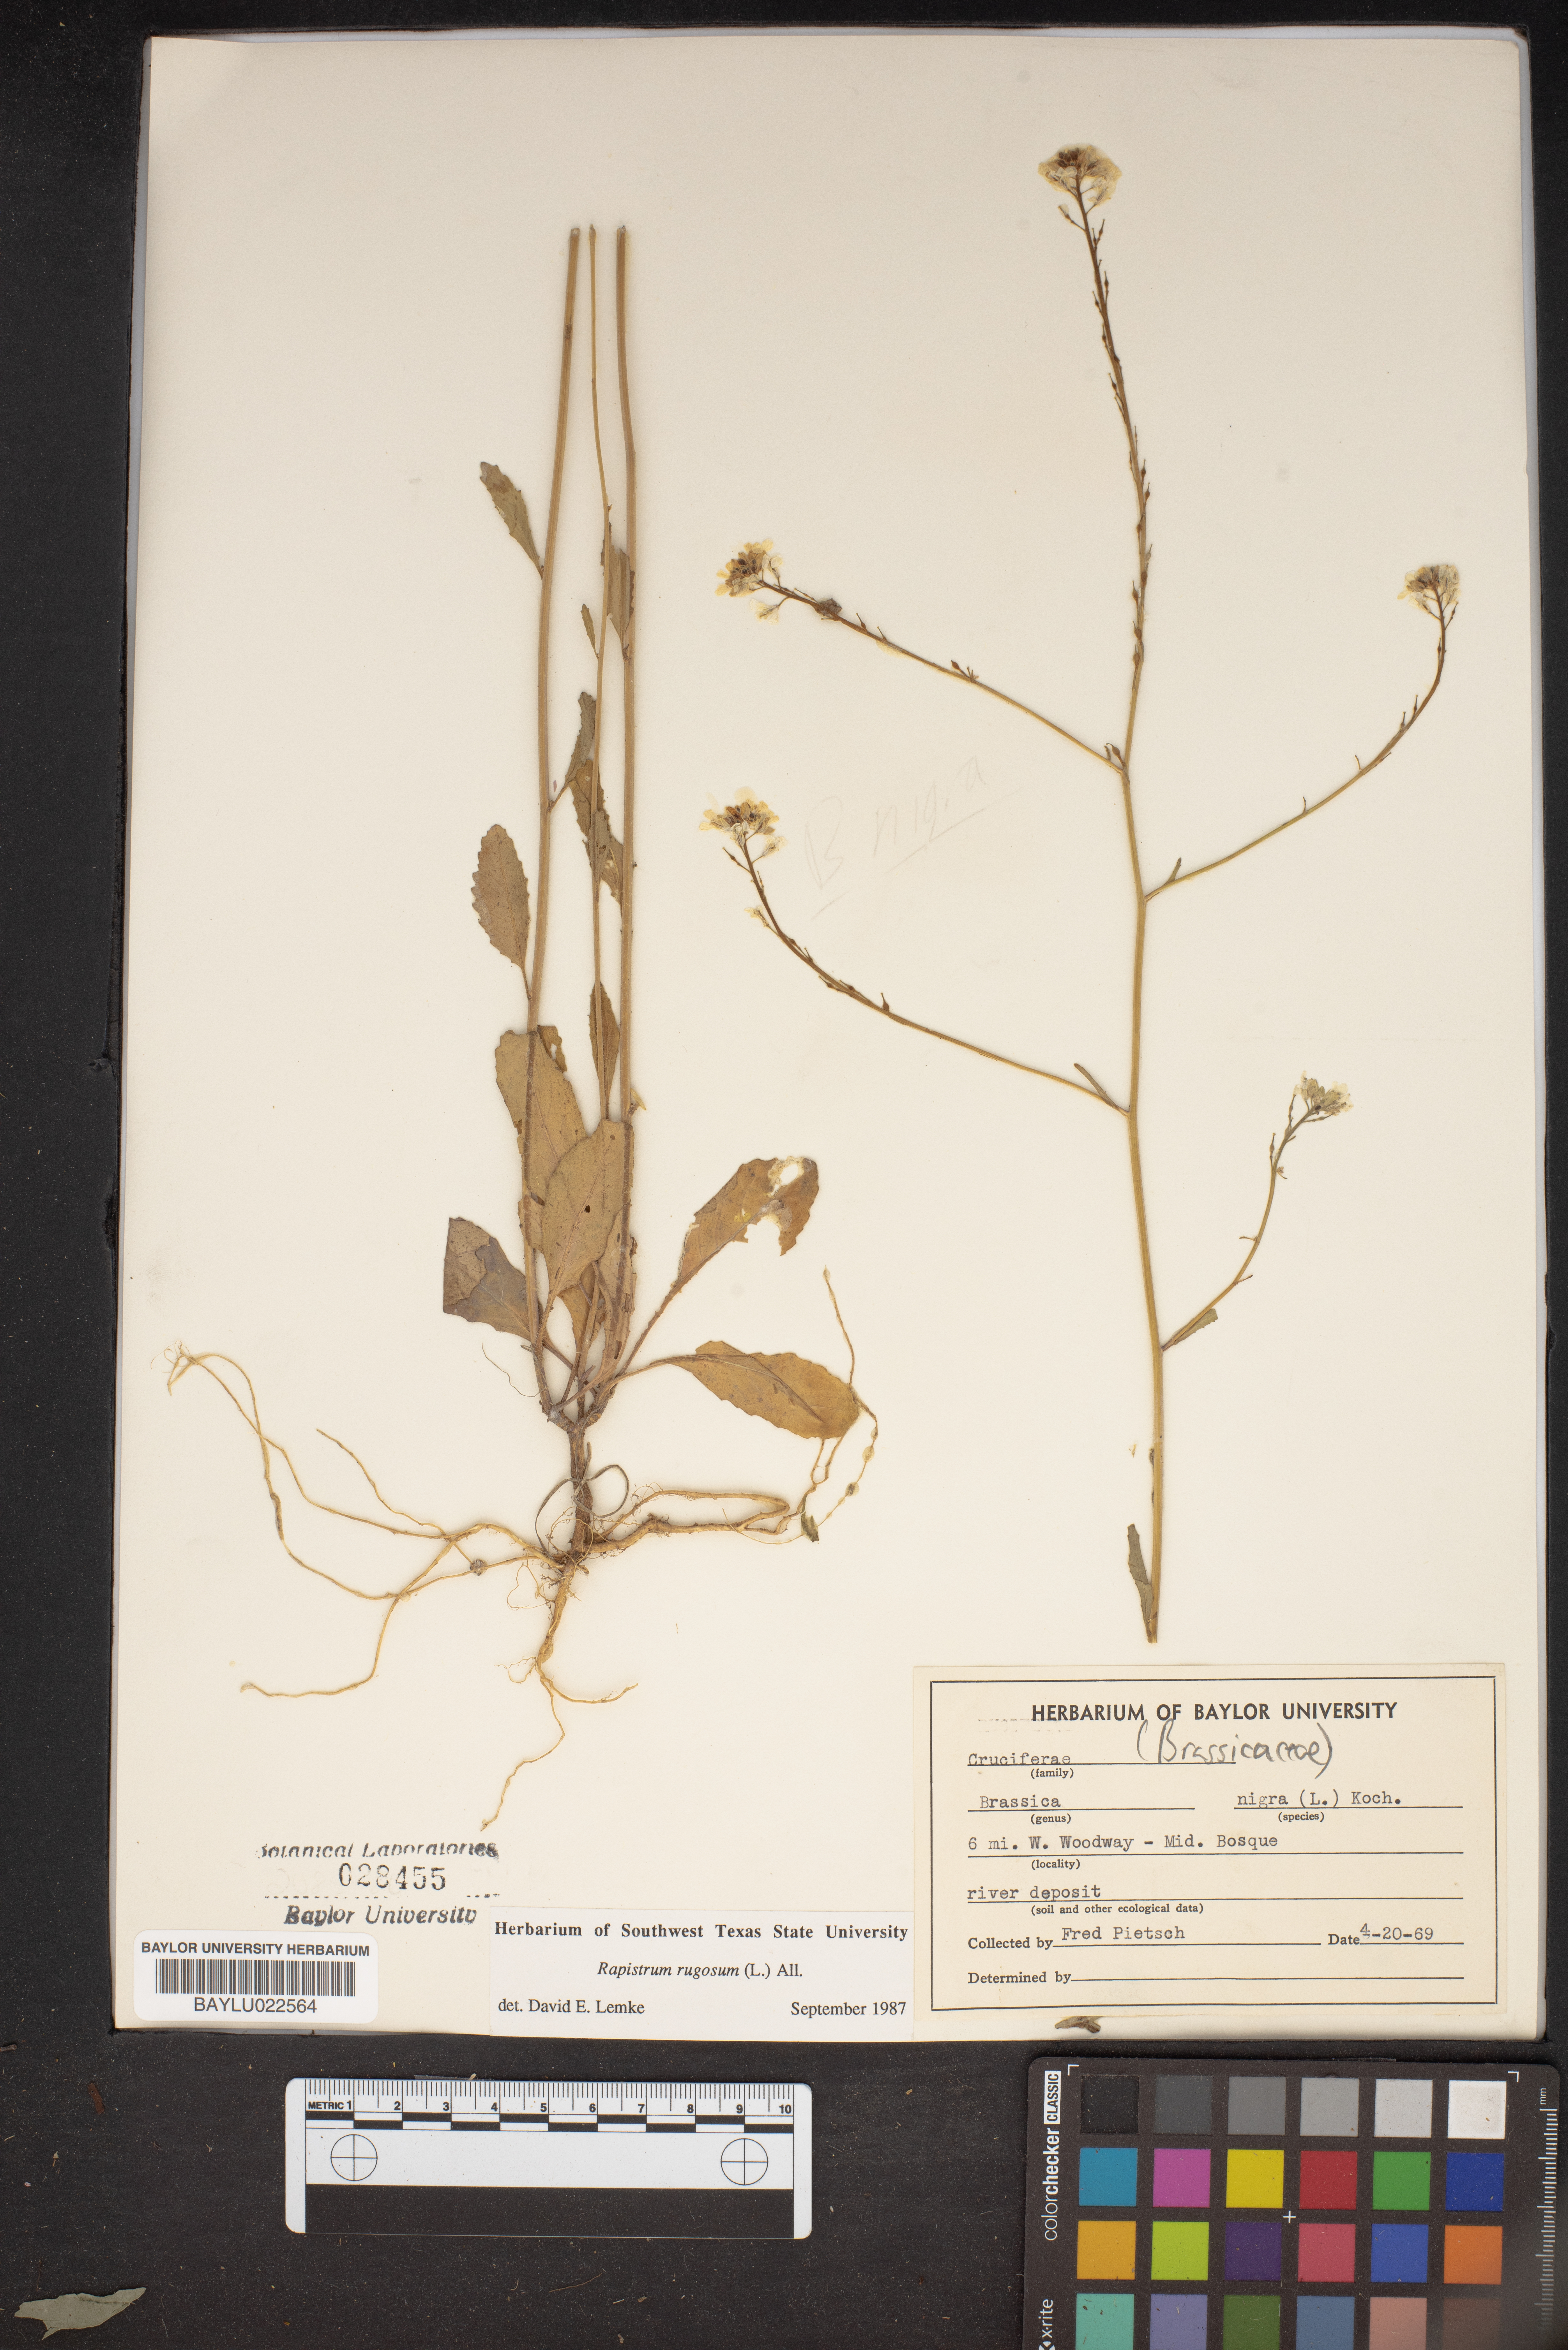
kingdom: Plantae
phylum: Tracheophyta
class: Magnoliopsida
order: Brassicales
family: Brassicaceae
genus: Rapistrum
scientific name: Rapistrum rugosum
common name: Annual bastardcabbage
